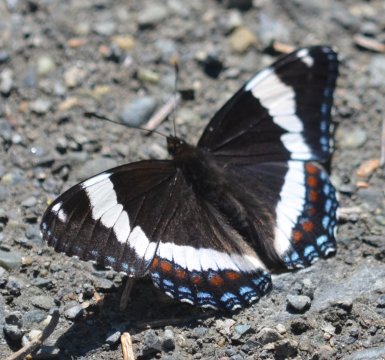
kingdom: Animalia
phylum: Arthropoda
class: Insecta
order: Lepidoptera
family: Nymphalidae
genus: Limenitis
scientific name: Limenitis arthemis
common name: Red-spotted Admiral
